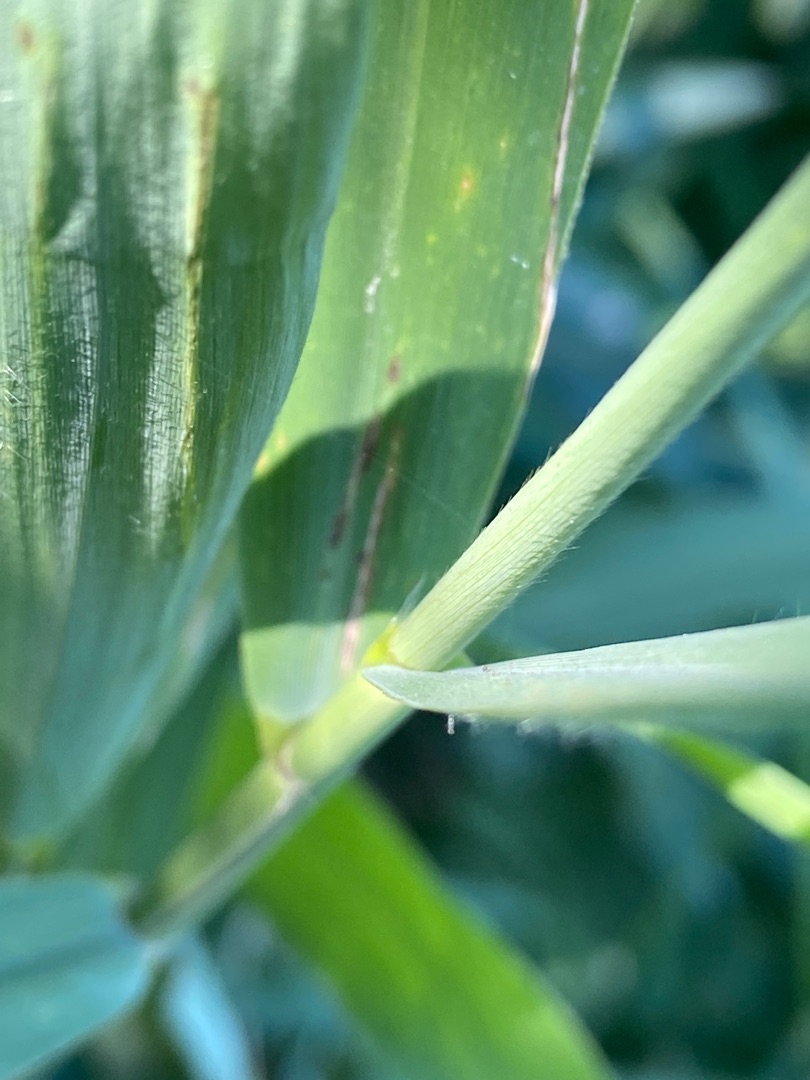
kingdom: Plantae
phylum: Tracheophyta
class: Liliopsida
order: Poales
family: Poaceae
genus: Phragmites
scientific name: Phragmites australis
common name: Tagrør
